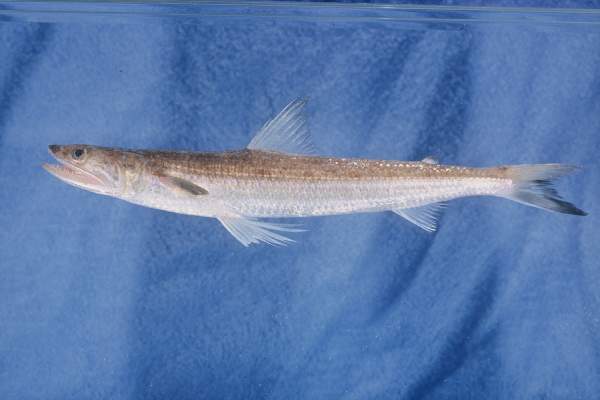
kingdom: Animalia
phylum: Chordata
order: Aulopiformes
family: Synodontidae
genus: Saurida
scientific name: Saurida
